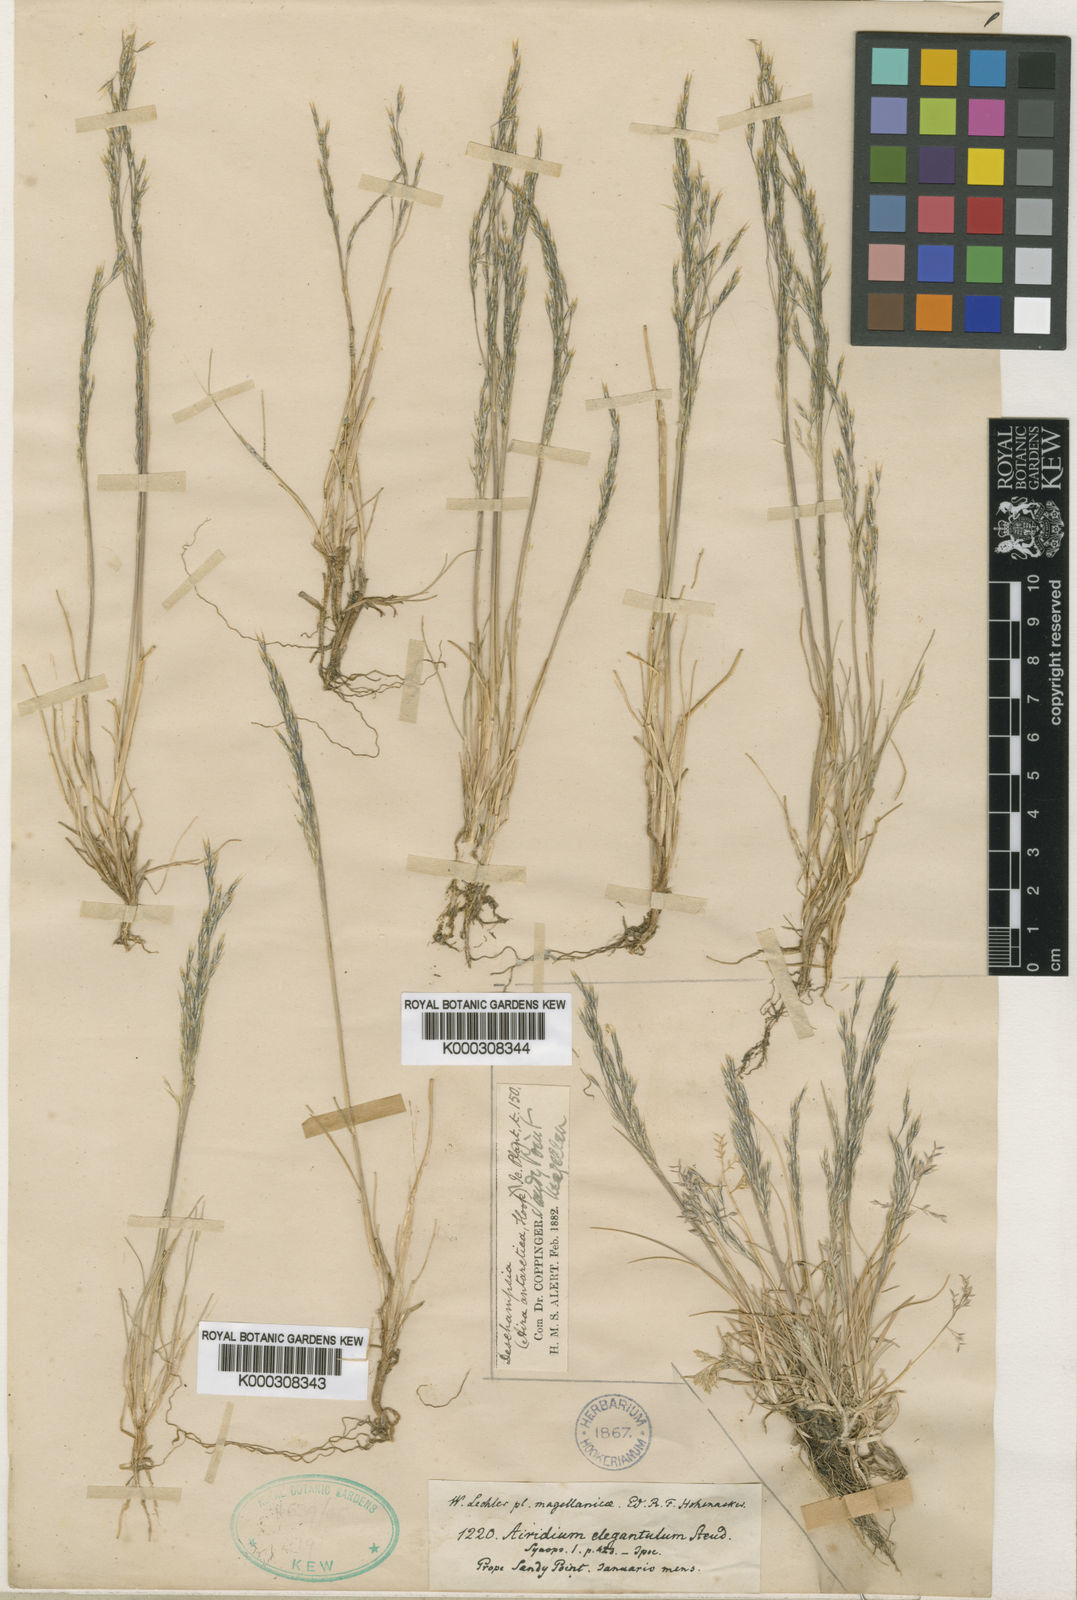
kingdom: Plantae
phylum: Tracheophyta
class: Liliopsida
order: Poales
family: Poaceae
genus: Deschampsia
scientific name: Deschampsia antarctica
